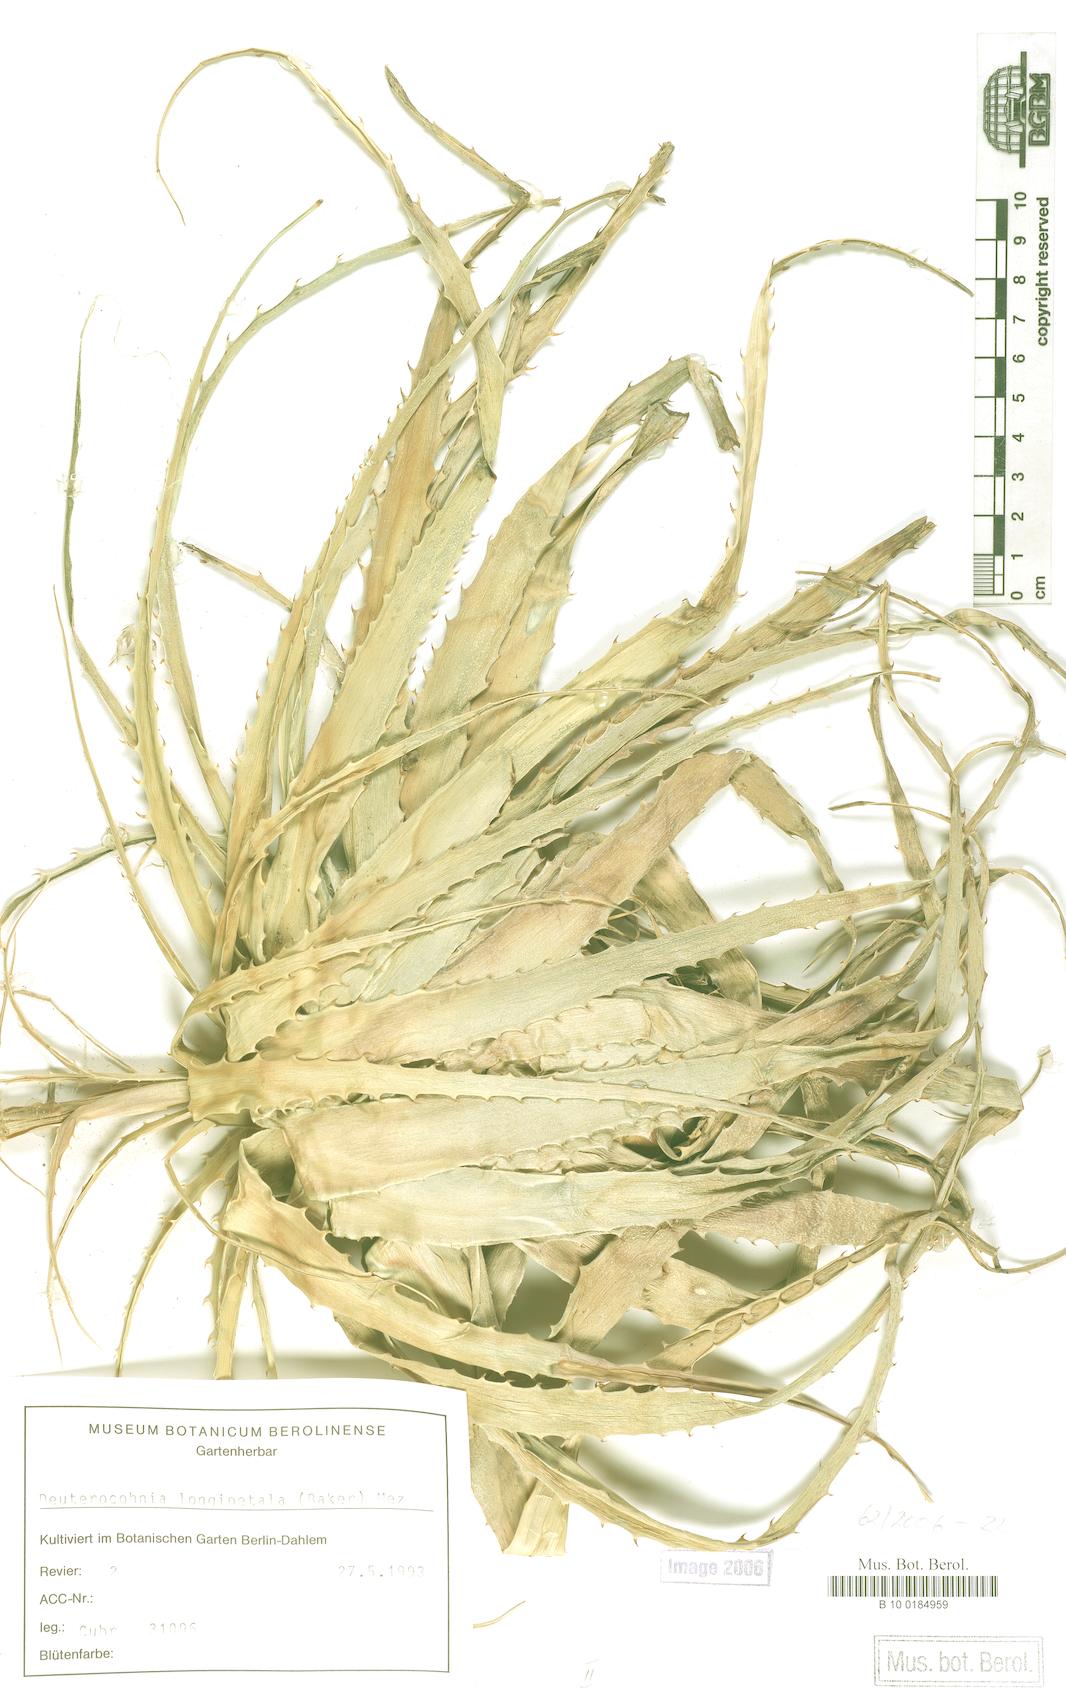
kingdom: Plantae
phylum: Tracheophyta
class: Liliopsida
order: Poales
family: Bromeliaceae
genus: Deuterocohnia
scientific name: Deuterocohnia schreiteri
